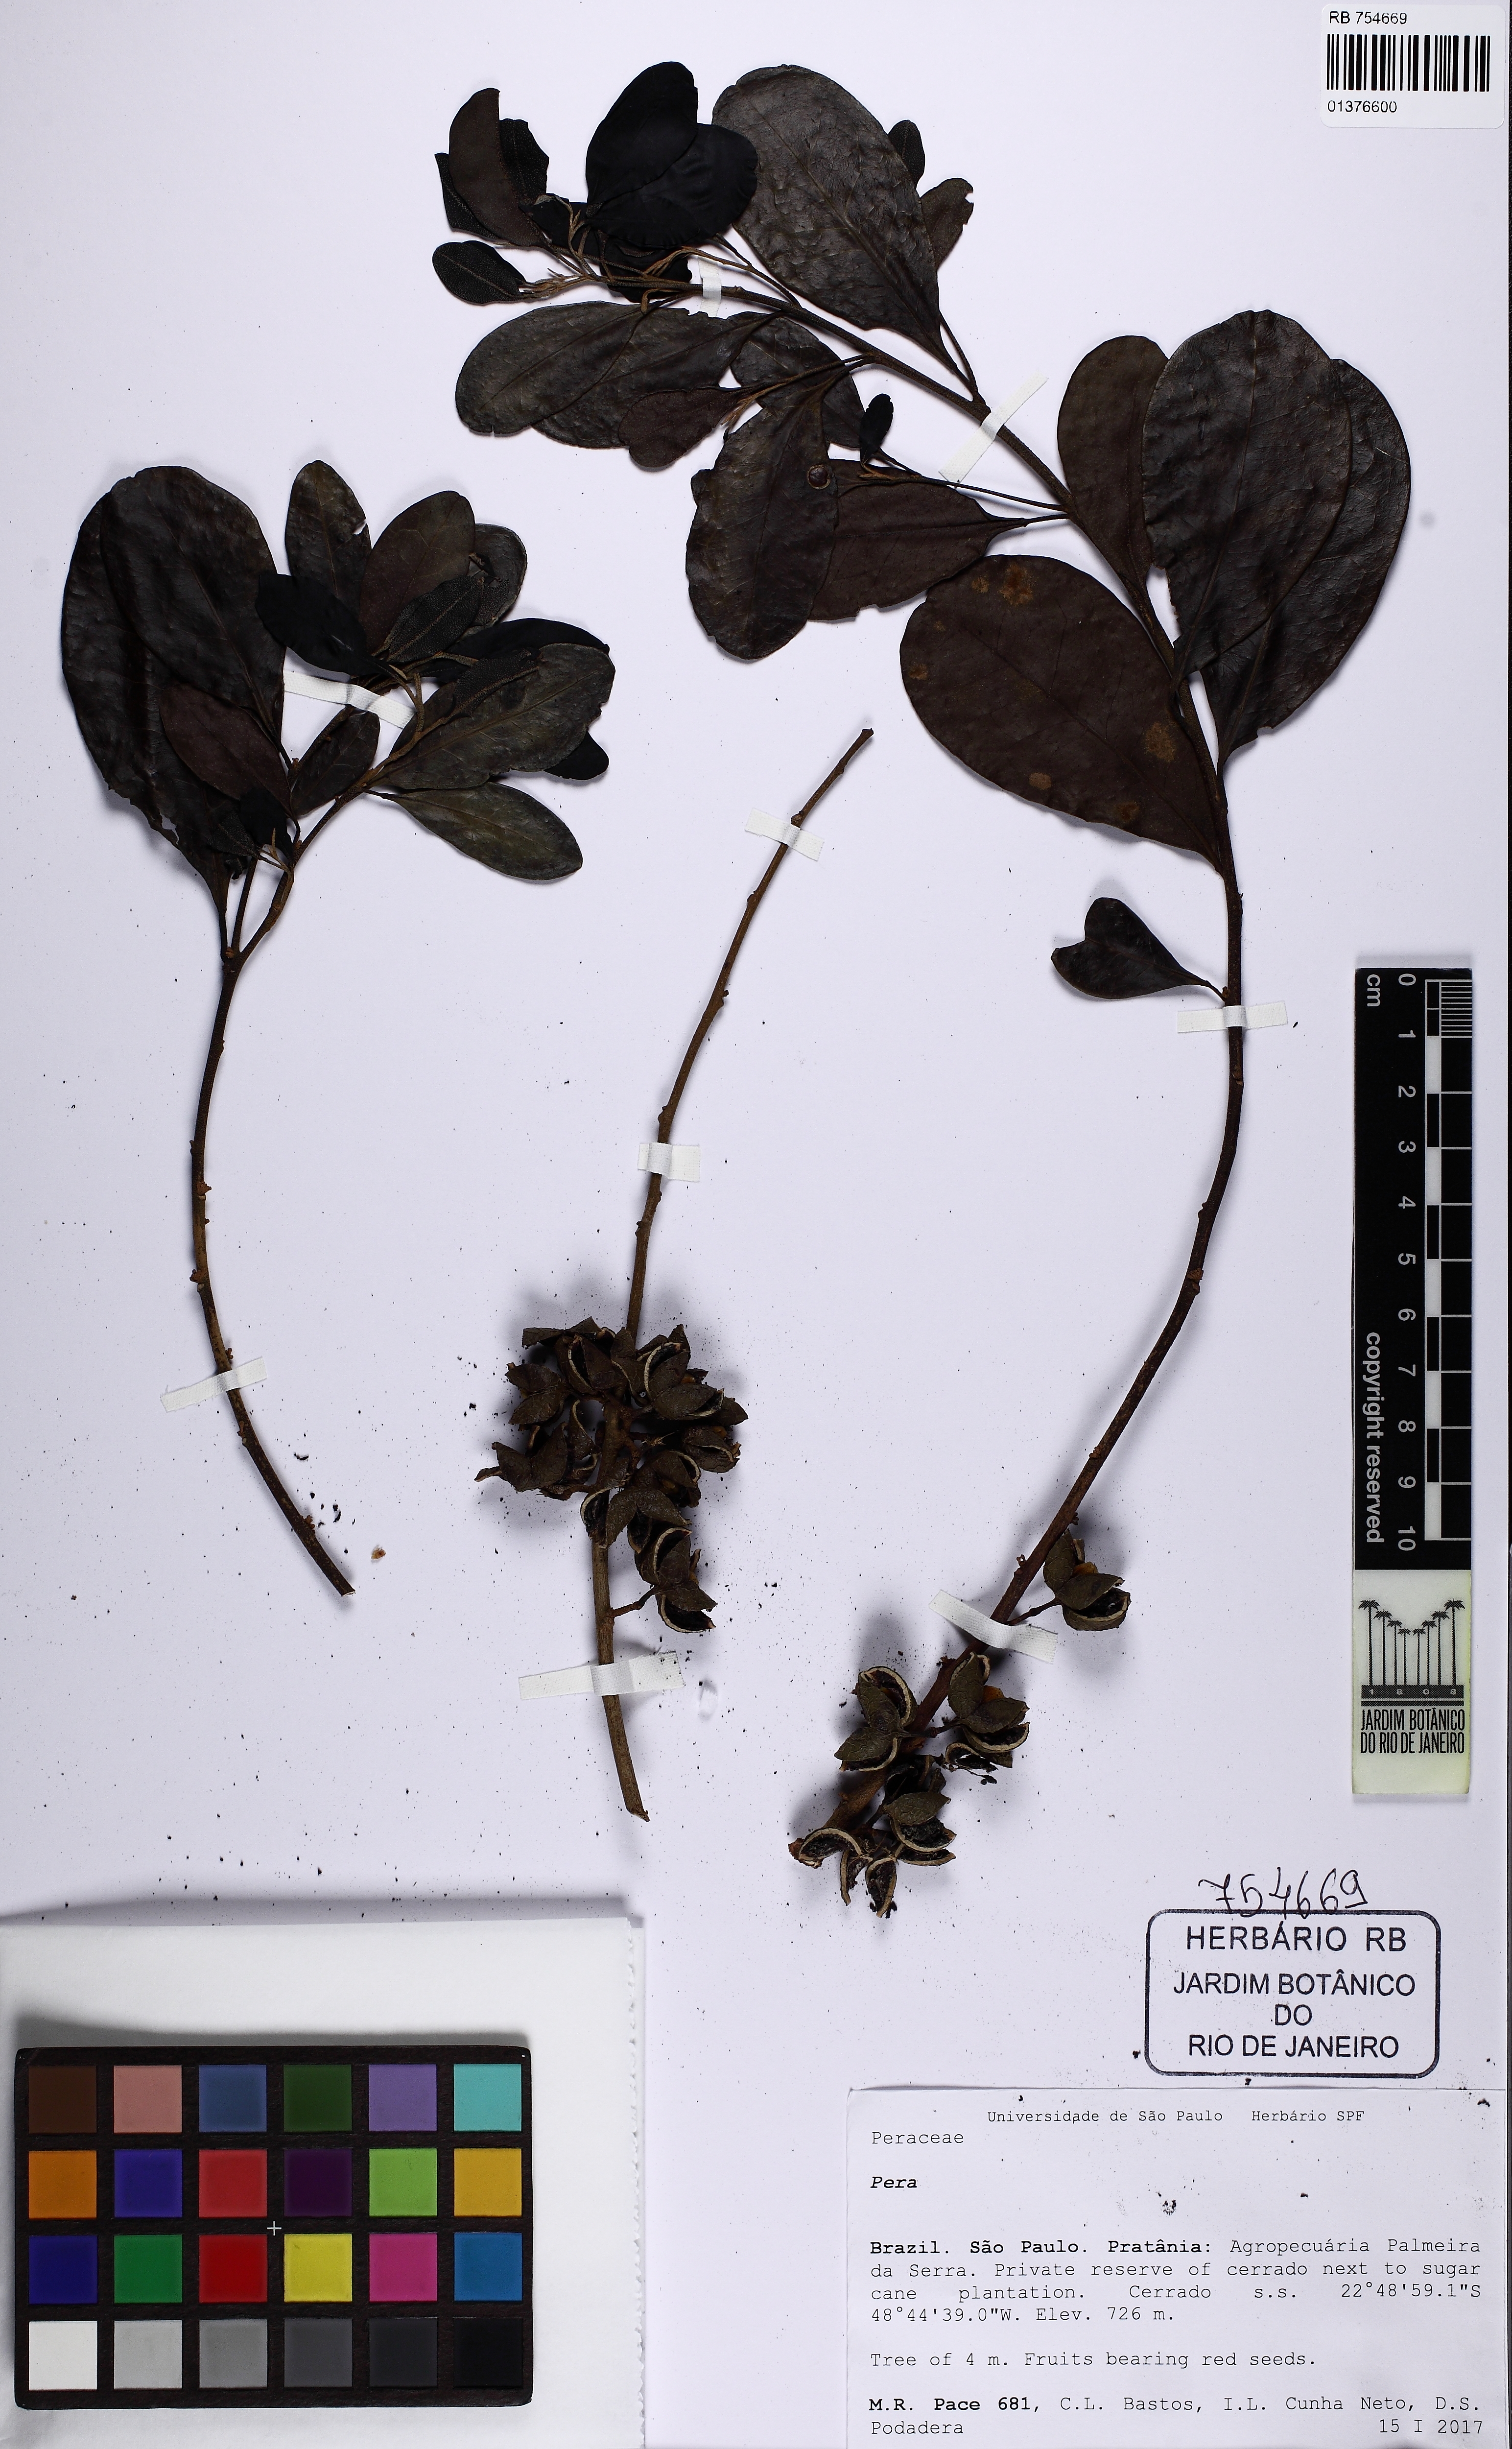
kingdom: Plantae
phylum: Tracheophyta
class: Magnoliopsida
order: Malpighiales
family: Peraceae
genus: Pera
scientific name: Pera
